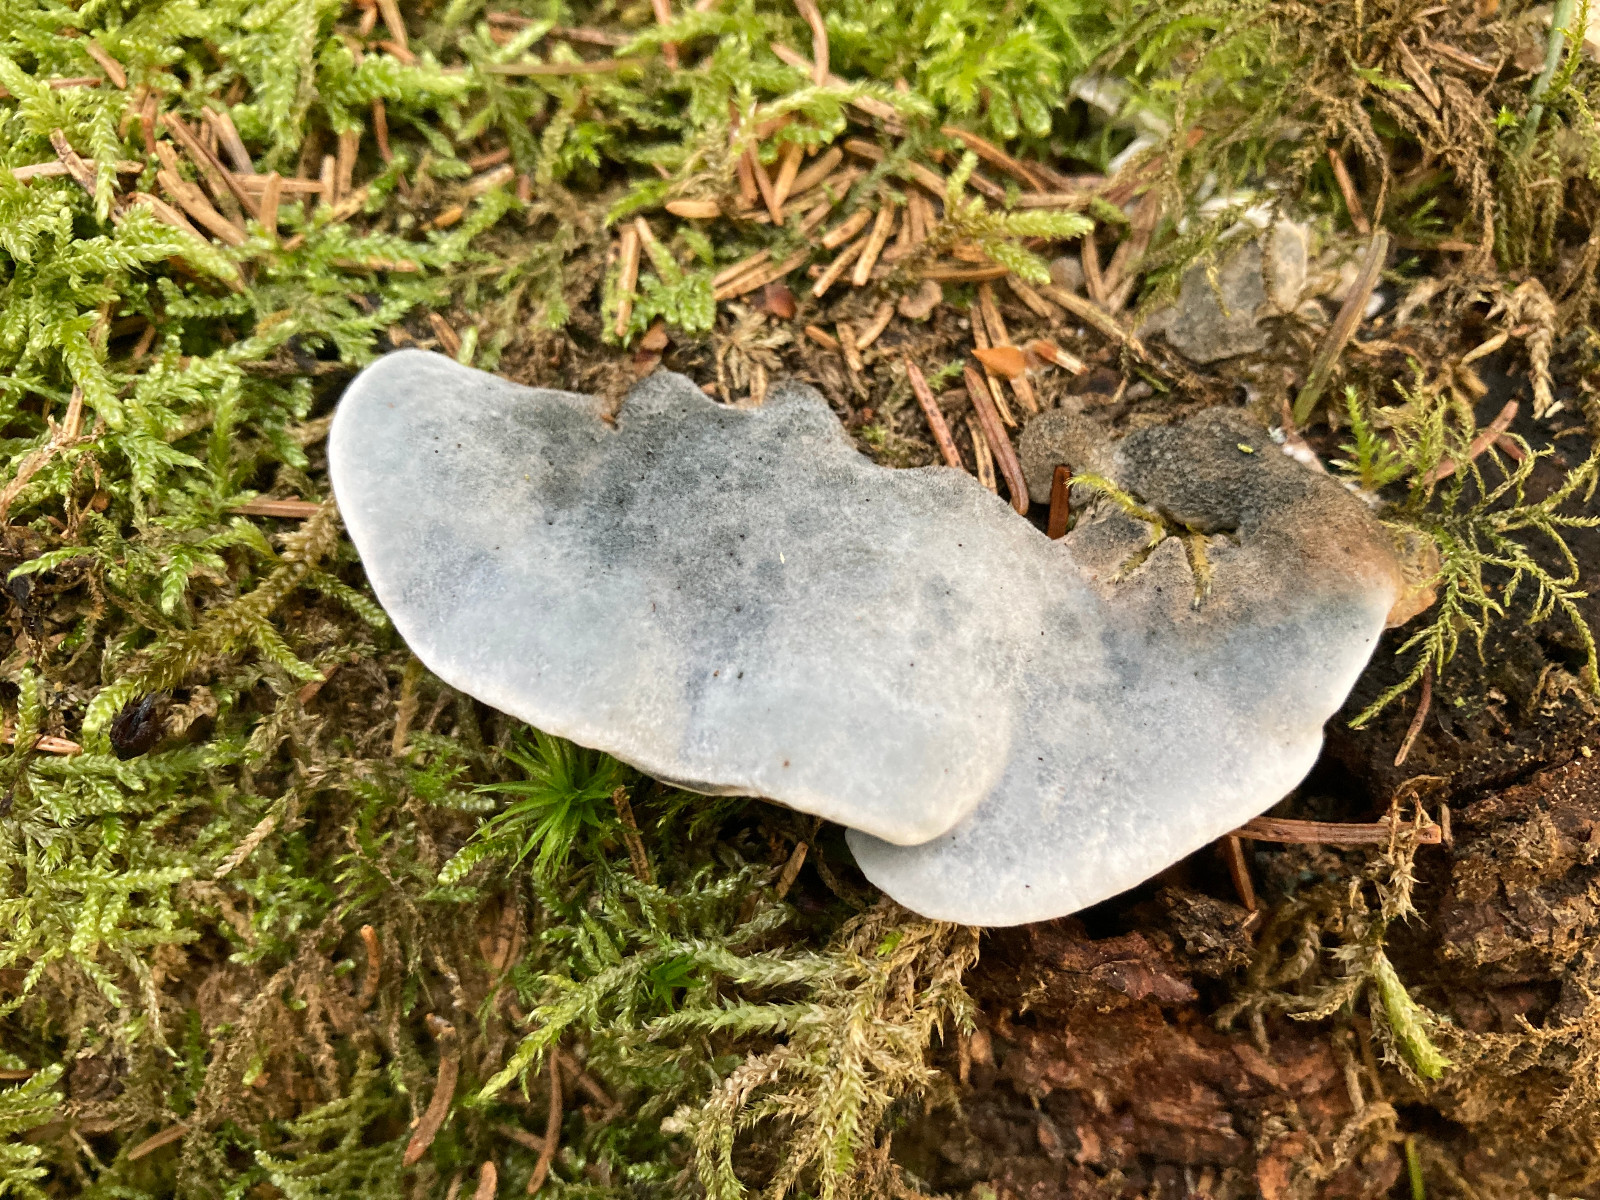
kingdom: Fungi
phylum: Basidiomycota
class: Agaricomycetes
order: Polyporales
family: Polyporaceae
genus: Cyanosporus
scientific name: Cyanosporus caesius
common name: blålig kødporesvamp
